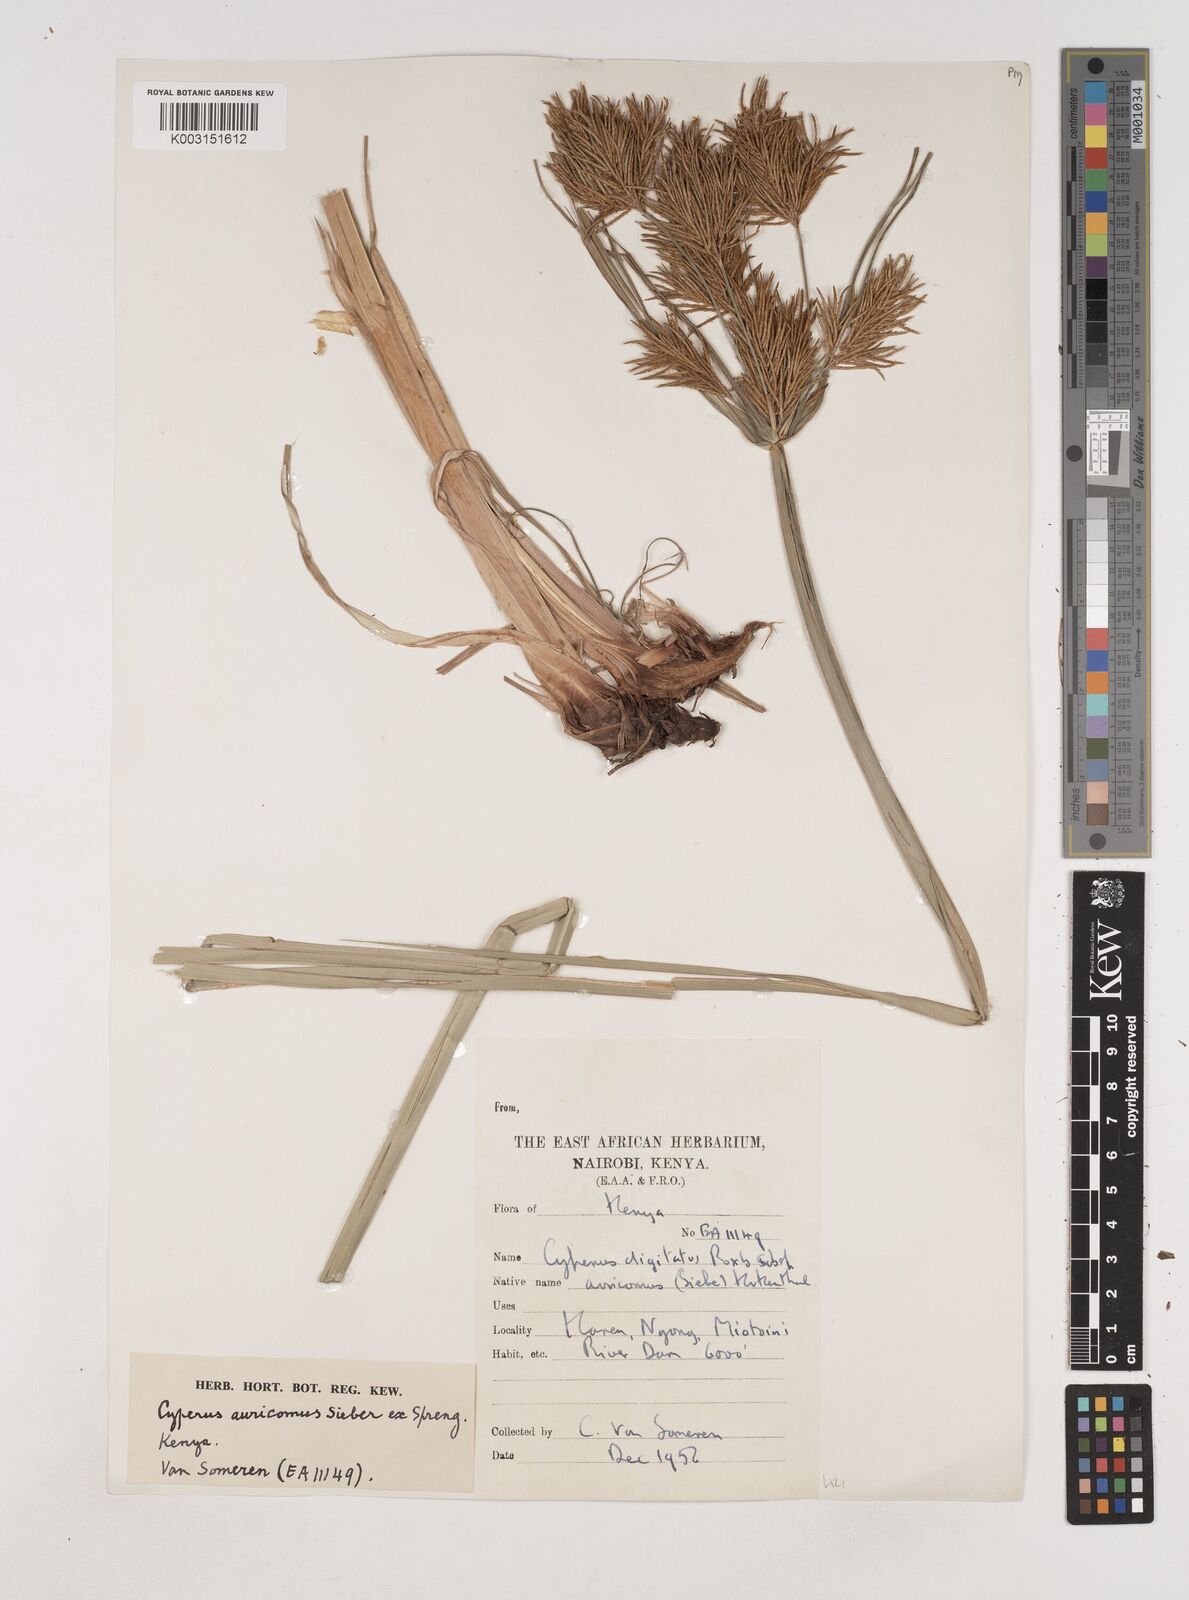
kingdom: Plantae
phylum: Tracheophyta
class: Liliopsida
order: Poales
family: Cyperaceae
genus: Cyperus
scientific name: Cyperus digitatus
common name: Finger flatsedge
